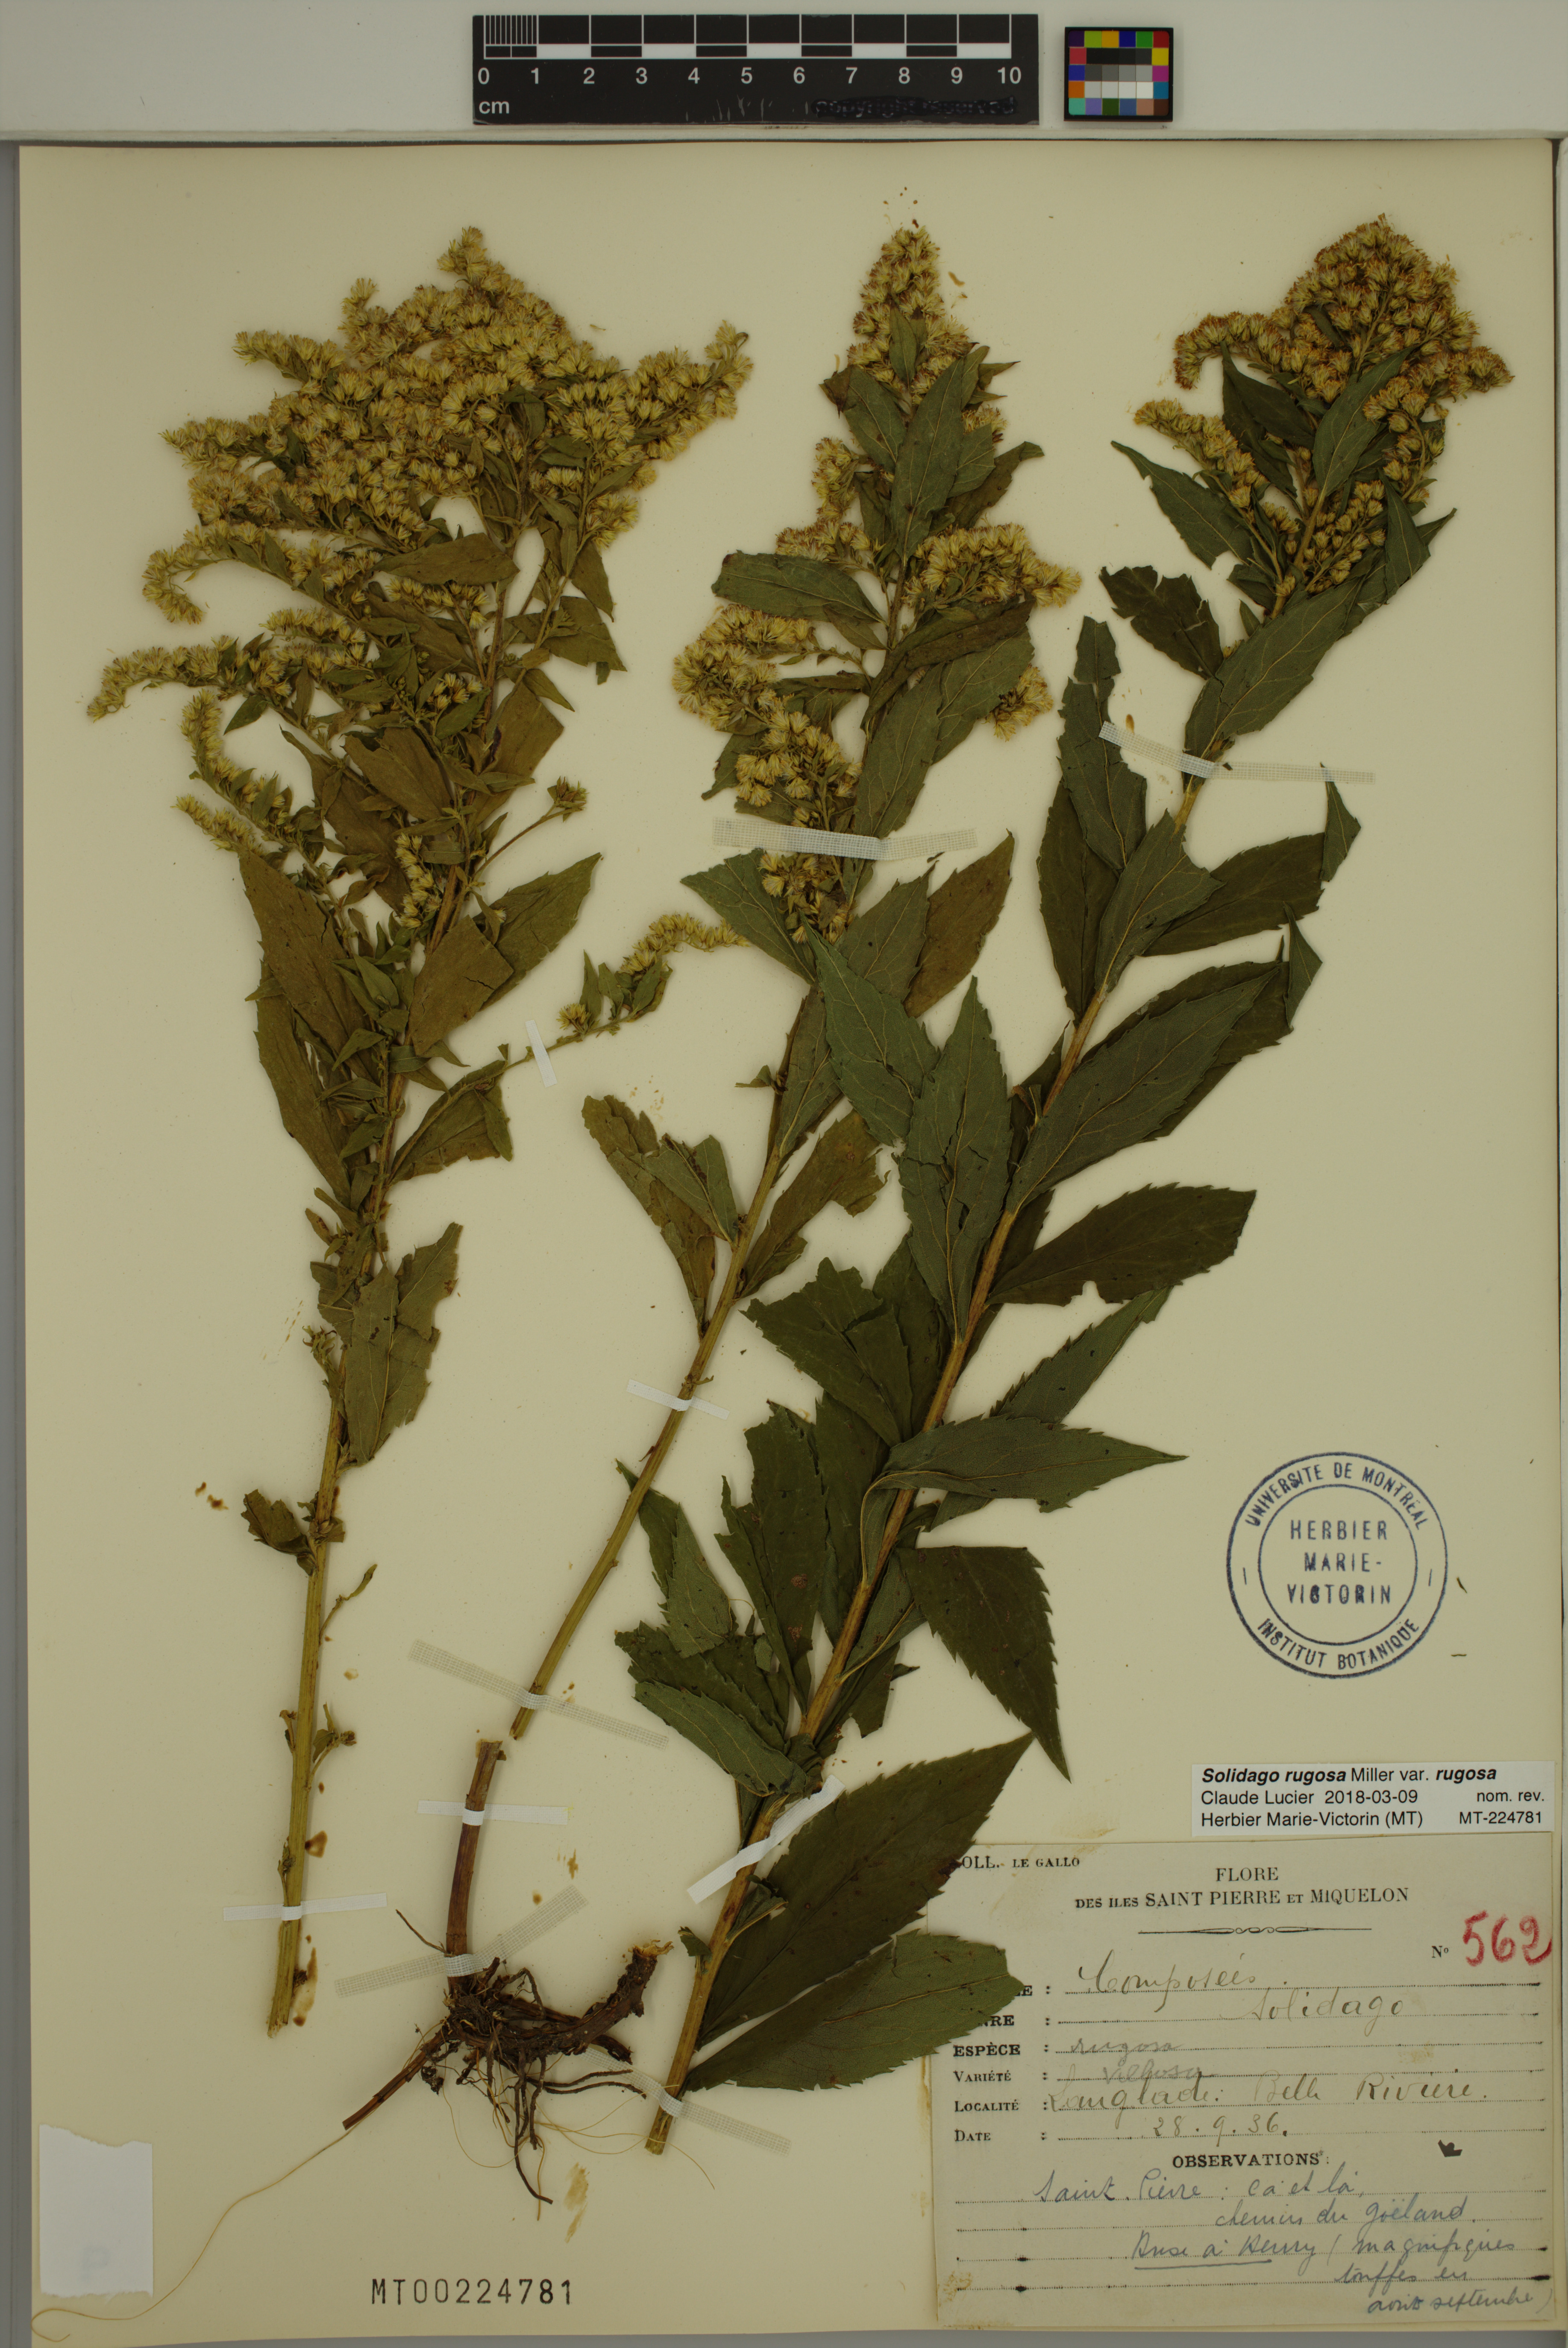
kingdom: Plantae
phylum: Tracheophyta
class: Magnoliopsida
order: Asterales
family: Asteraceae
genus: Solidago
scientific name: Solidago rugosa
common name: Rough-stemmed goldenrod
